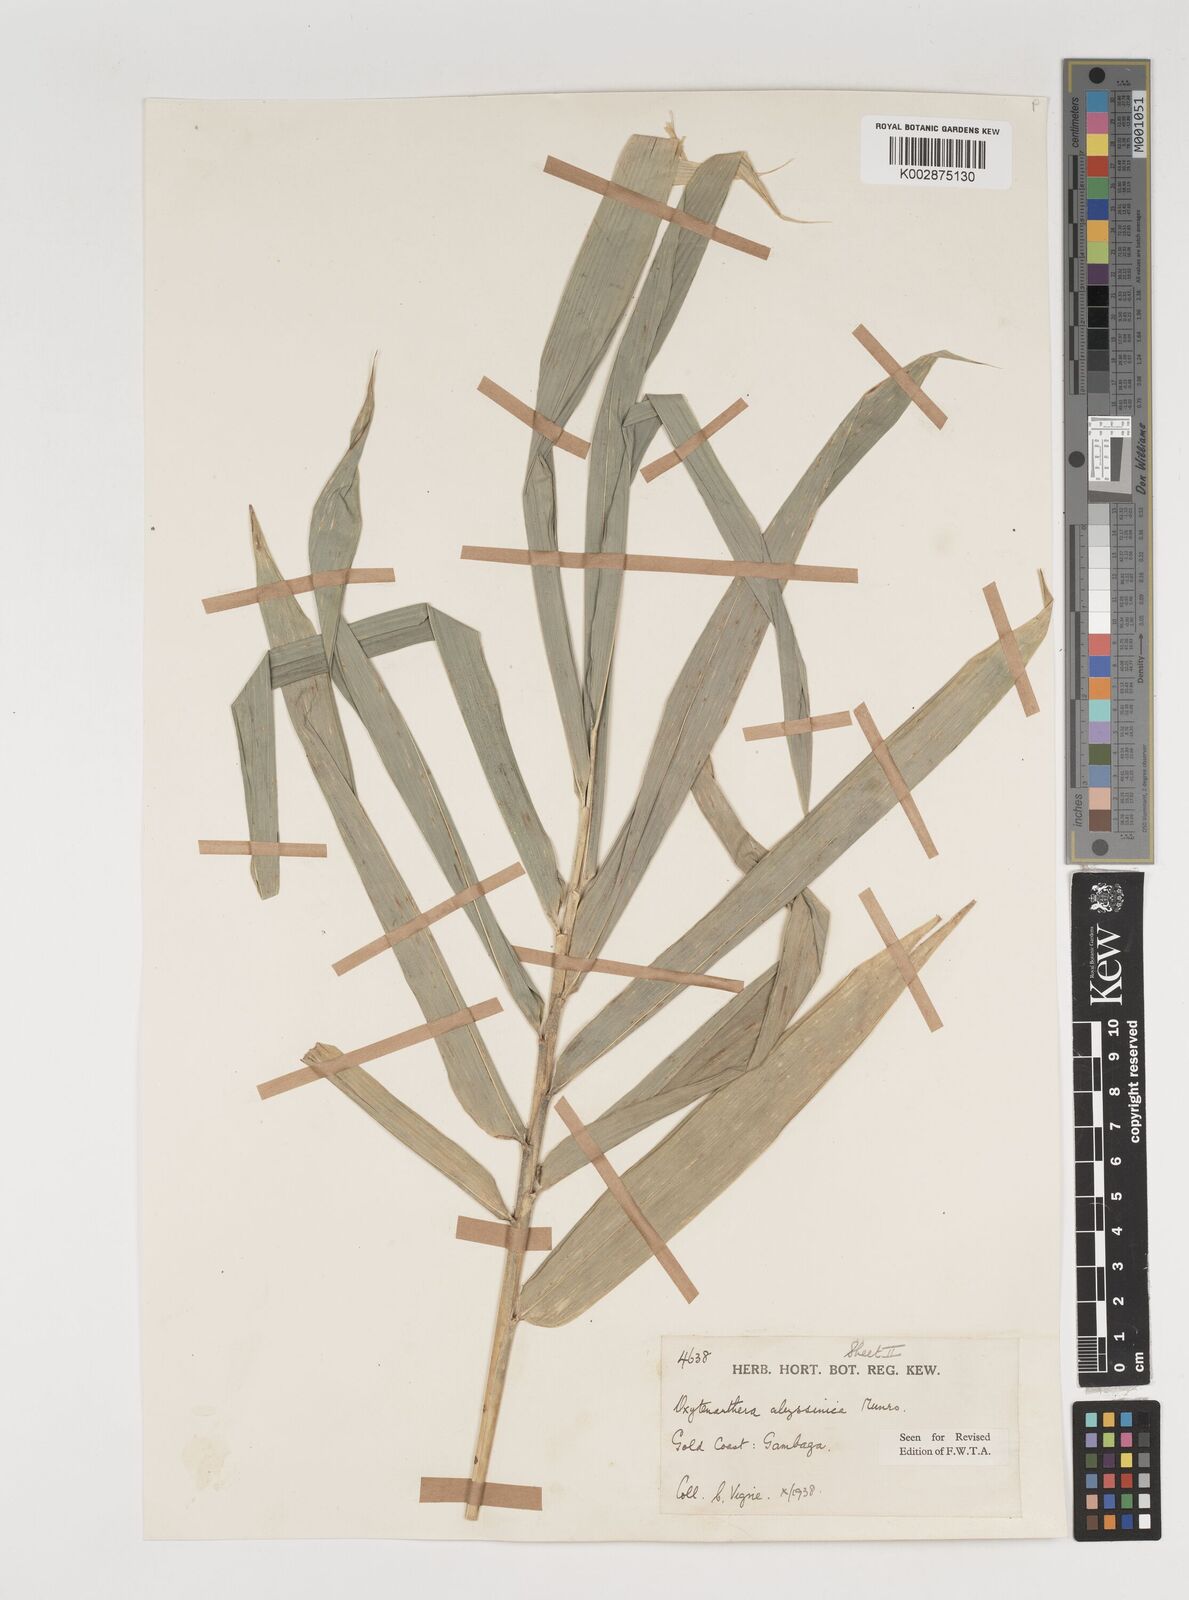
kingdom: Plantae
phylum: Tracheophyta
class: Liliopsida
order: Poales
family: Poaceae
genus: Oxytenanthera
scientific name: Oxytenanthera abyssinica
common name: Wine bamboo
